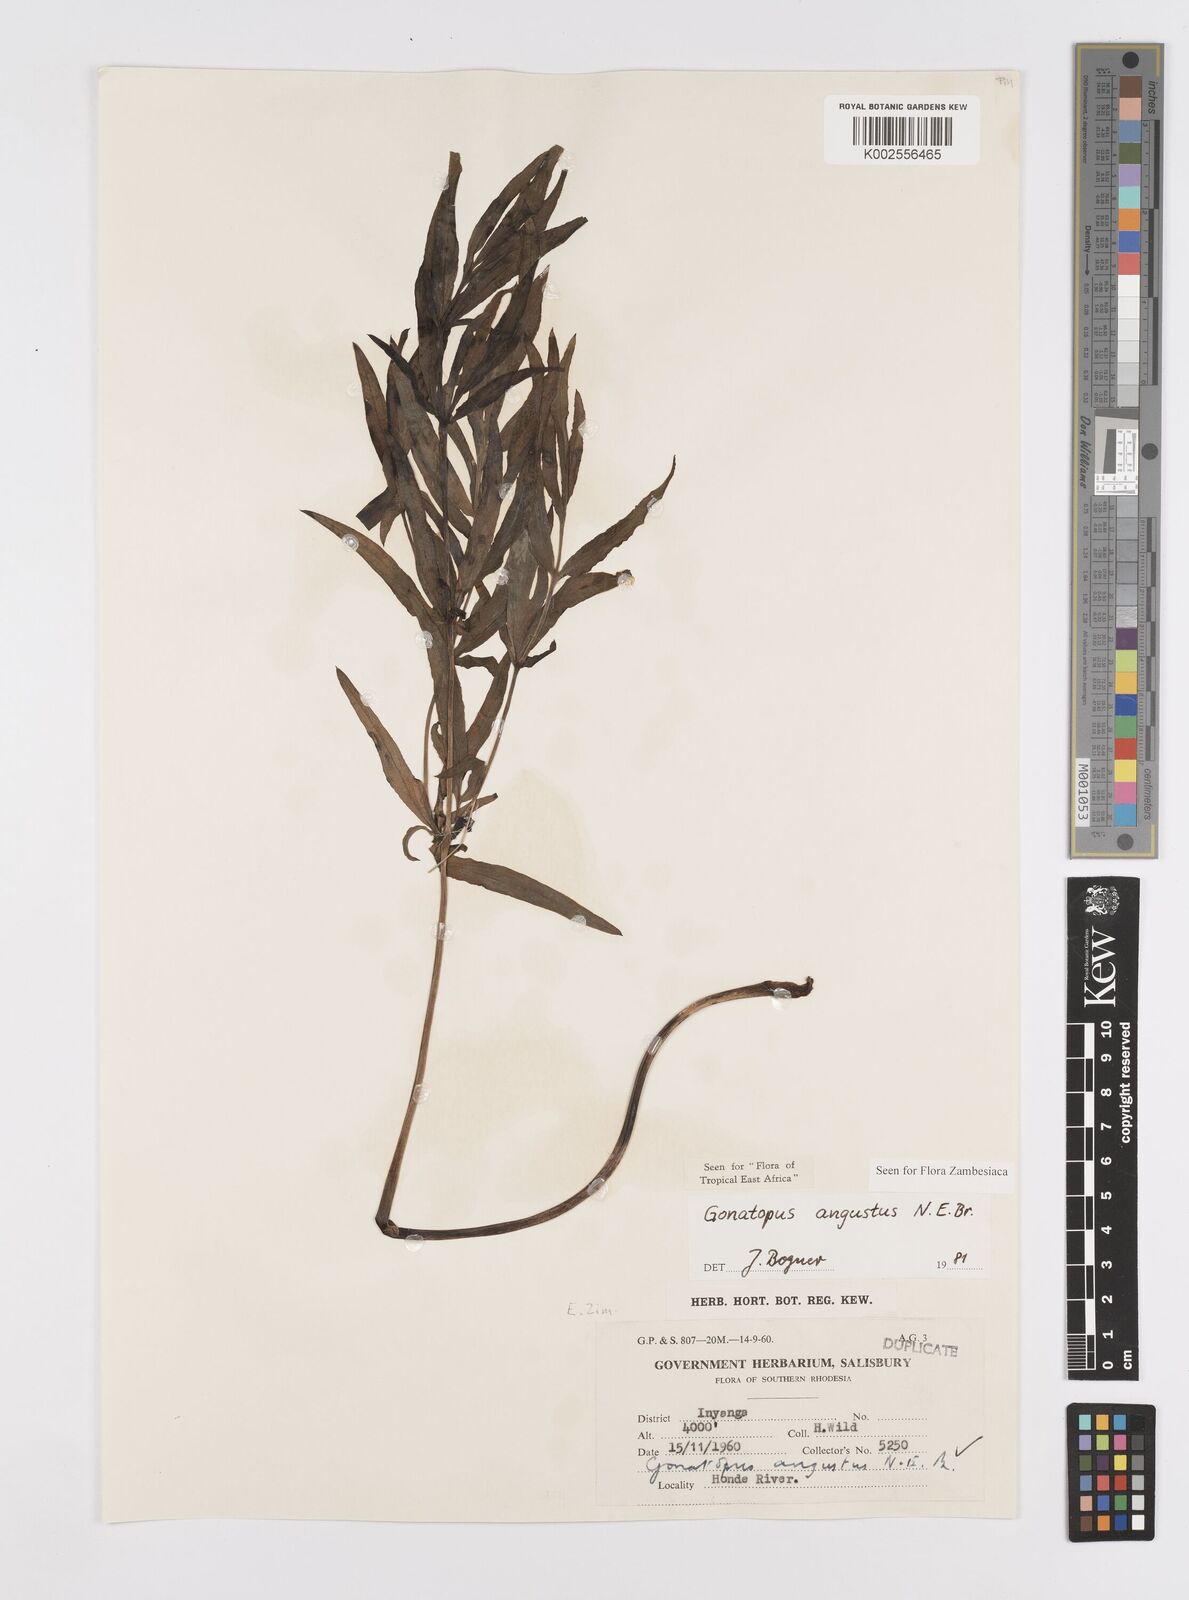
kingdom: Plantae
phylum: Tracheophyta
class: Liliopsida
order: Alismatales
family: Araceae
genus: Gonatopus
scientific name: Gonatopus angustus
